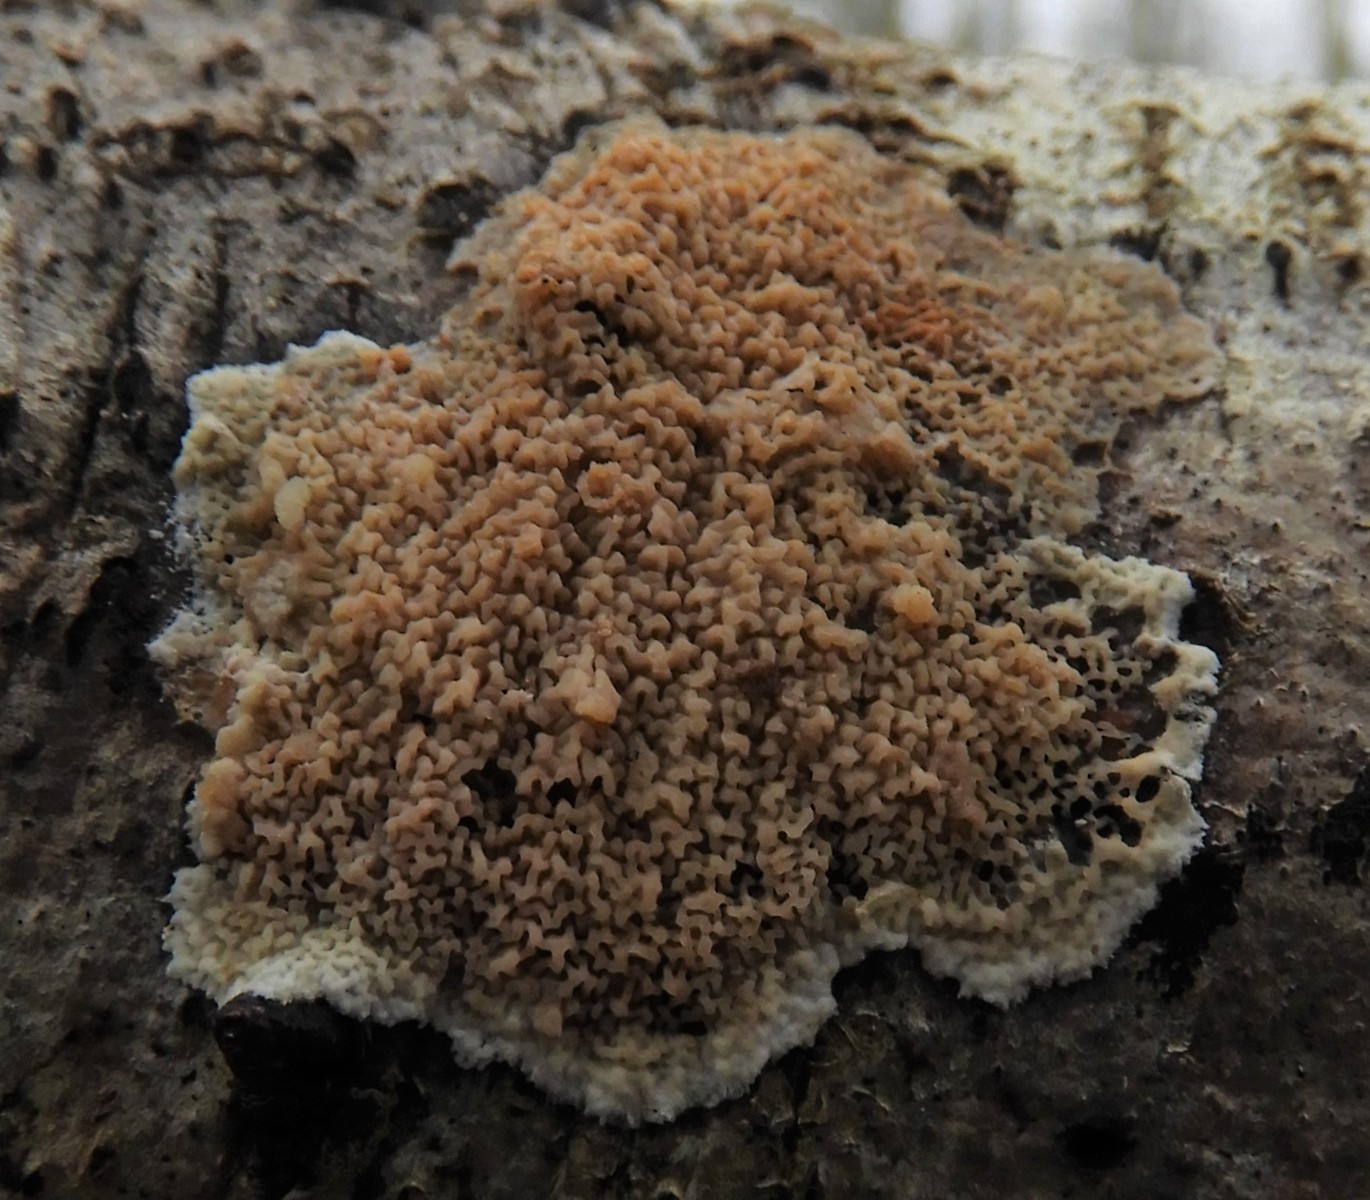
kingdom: Fungi
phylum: Basidiomycota
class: Agaricomycetes
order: Polyporales
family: Meruliaceae
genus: Phlebia
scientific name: Phlebia rufa
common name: ege-åresvamp
